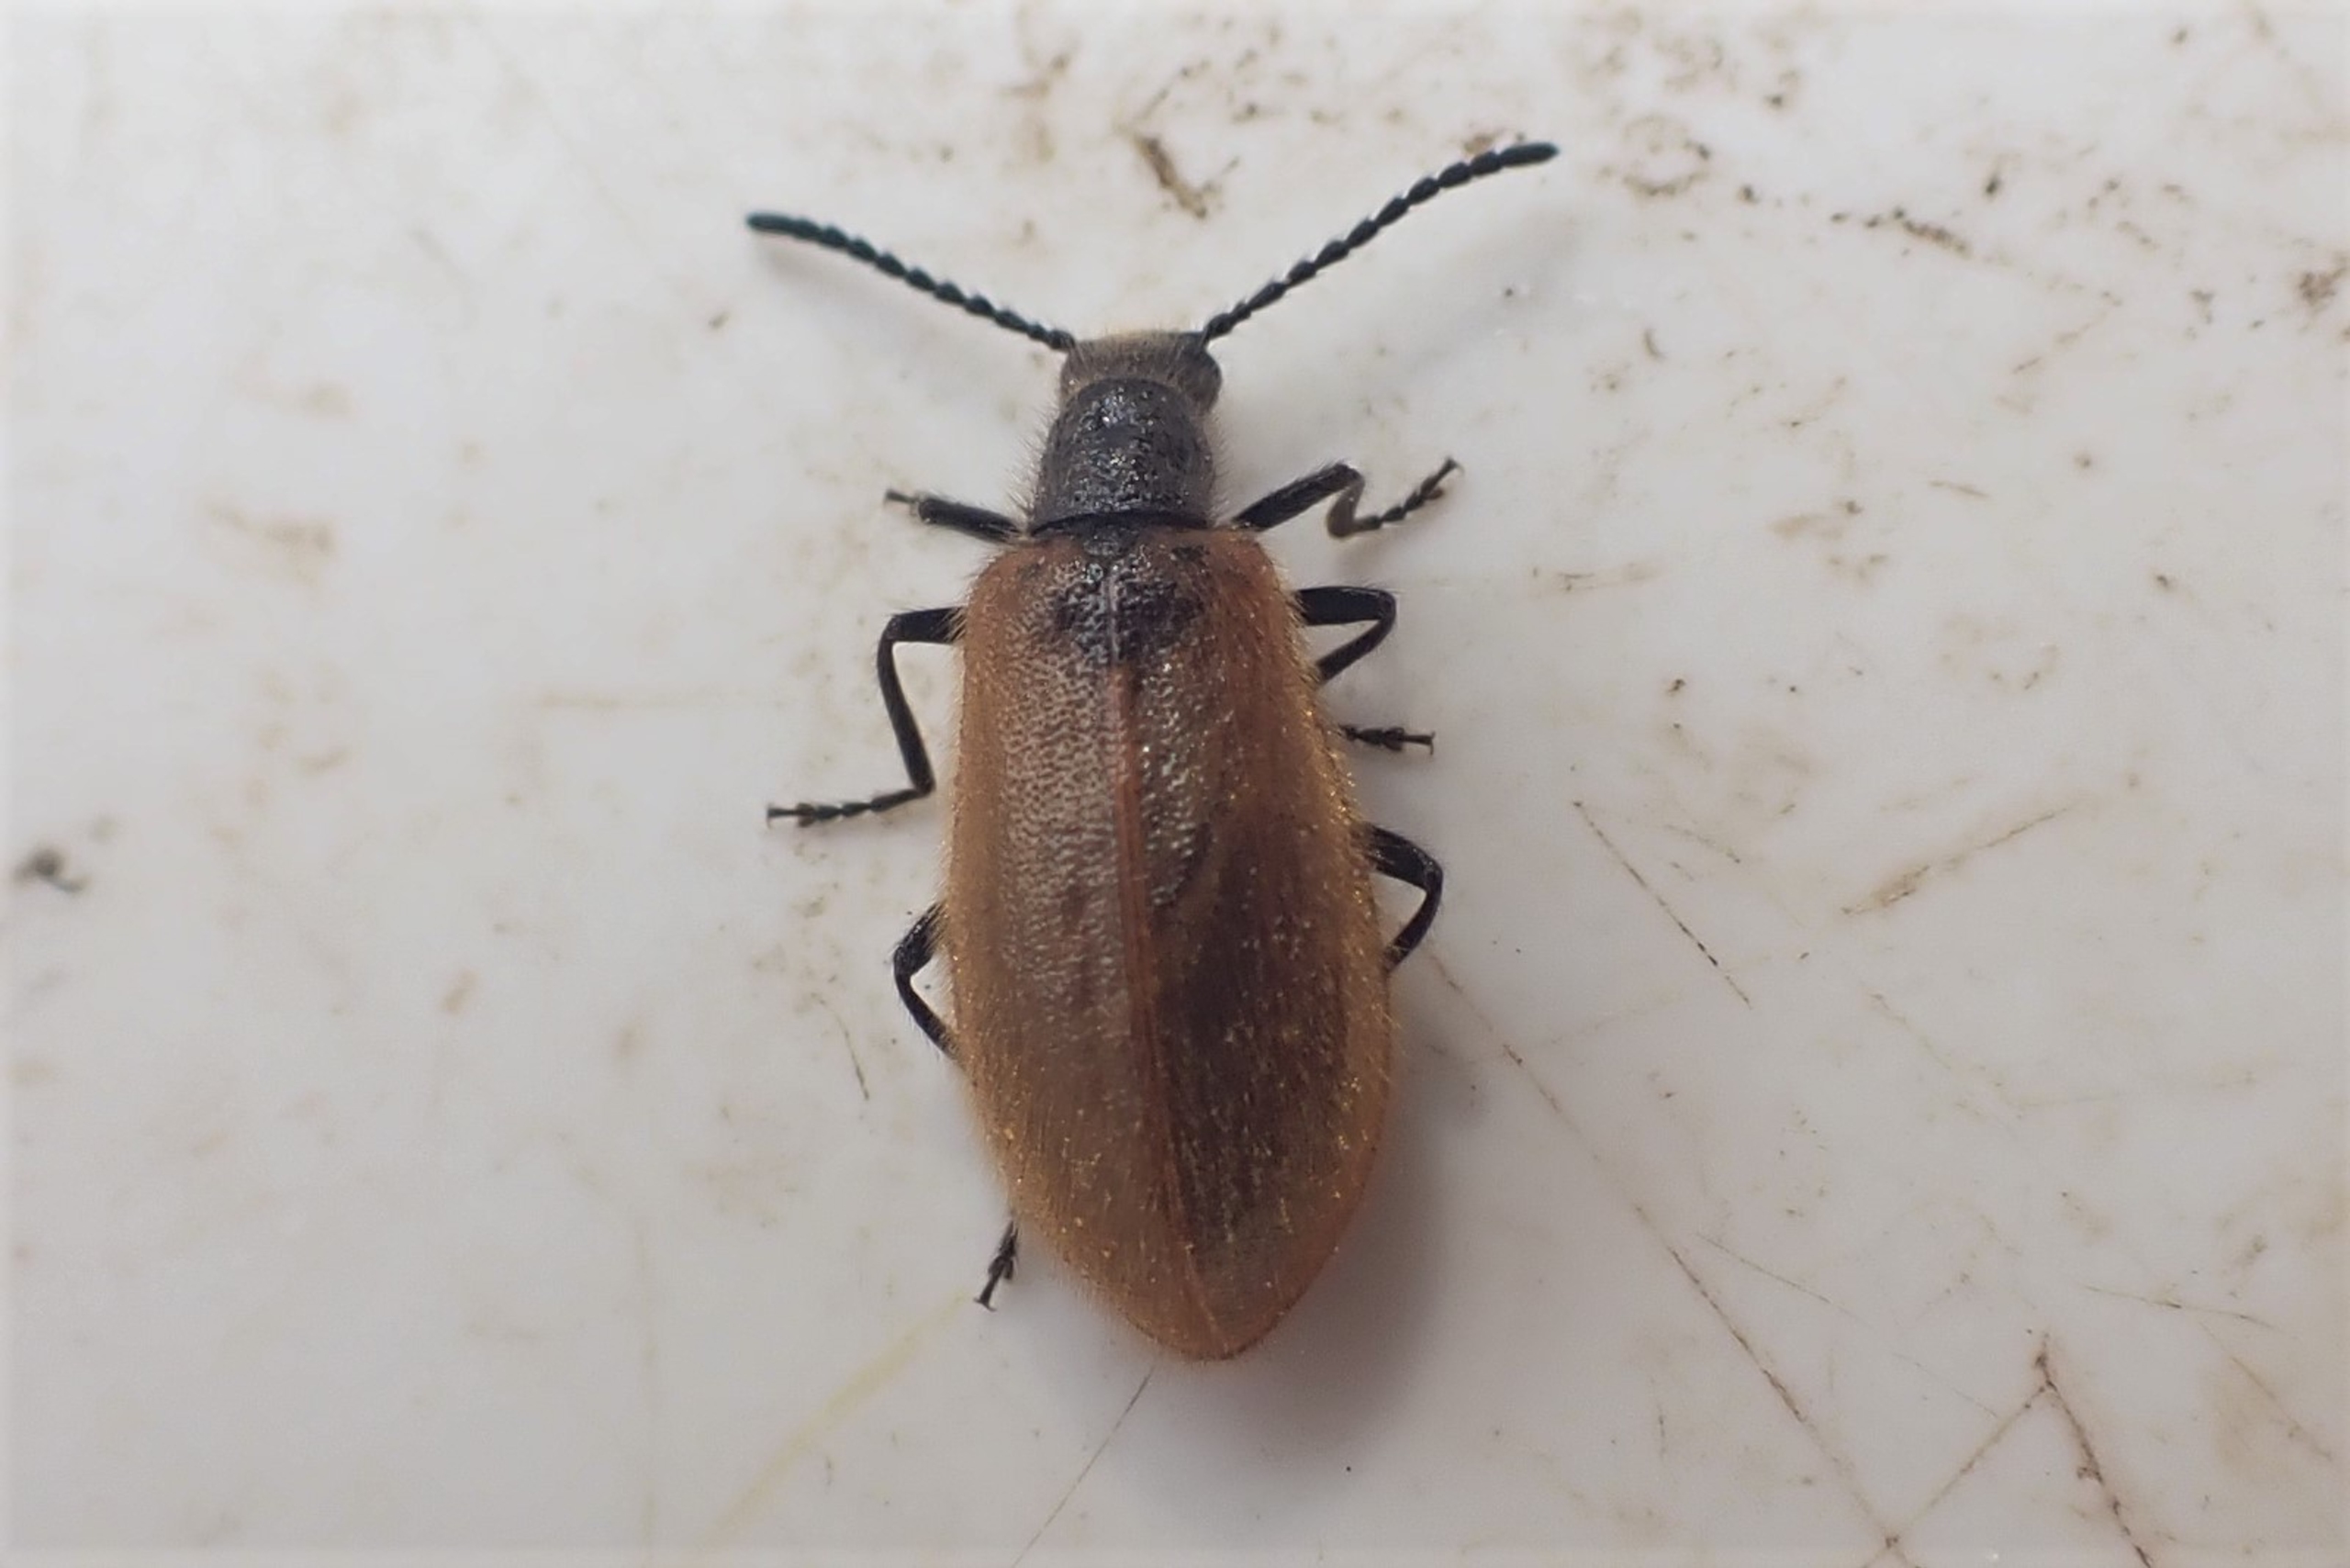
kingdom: Animalia
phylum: Arthropoda
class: Insecta
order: Coleoptera
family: Tenebrionidae
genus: Lagria
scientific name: Lagria hirta
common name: Håret skyggebille
